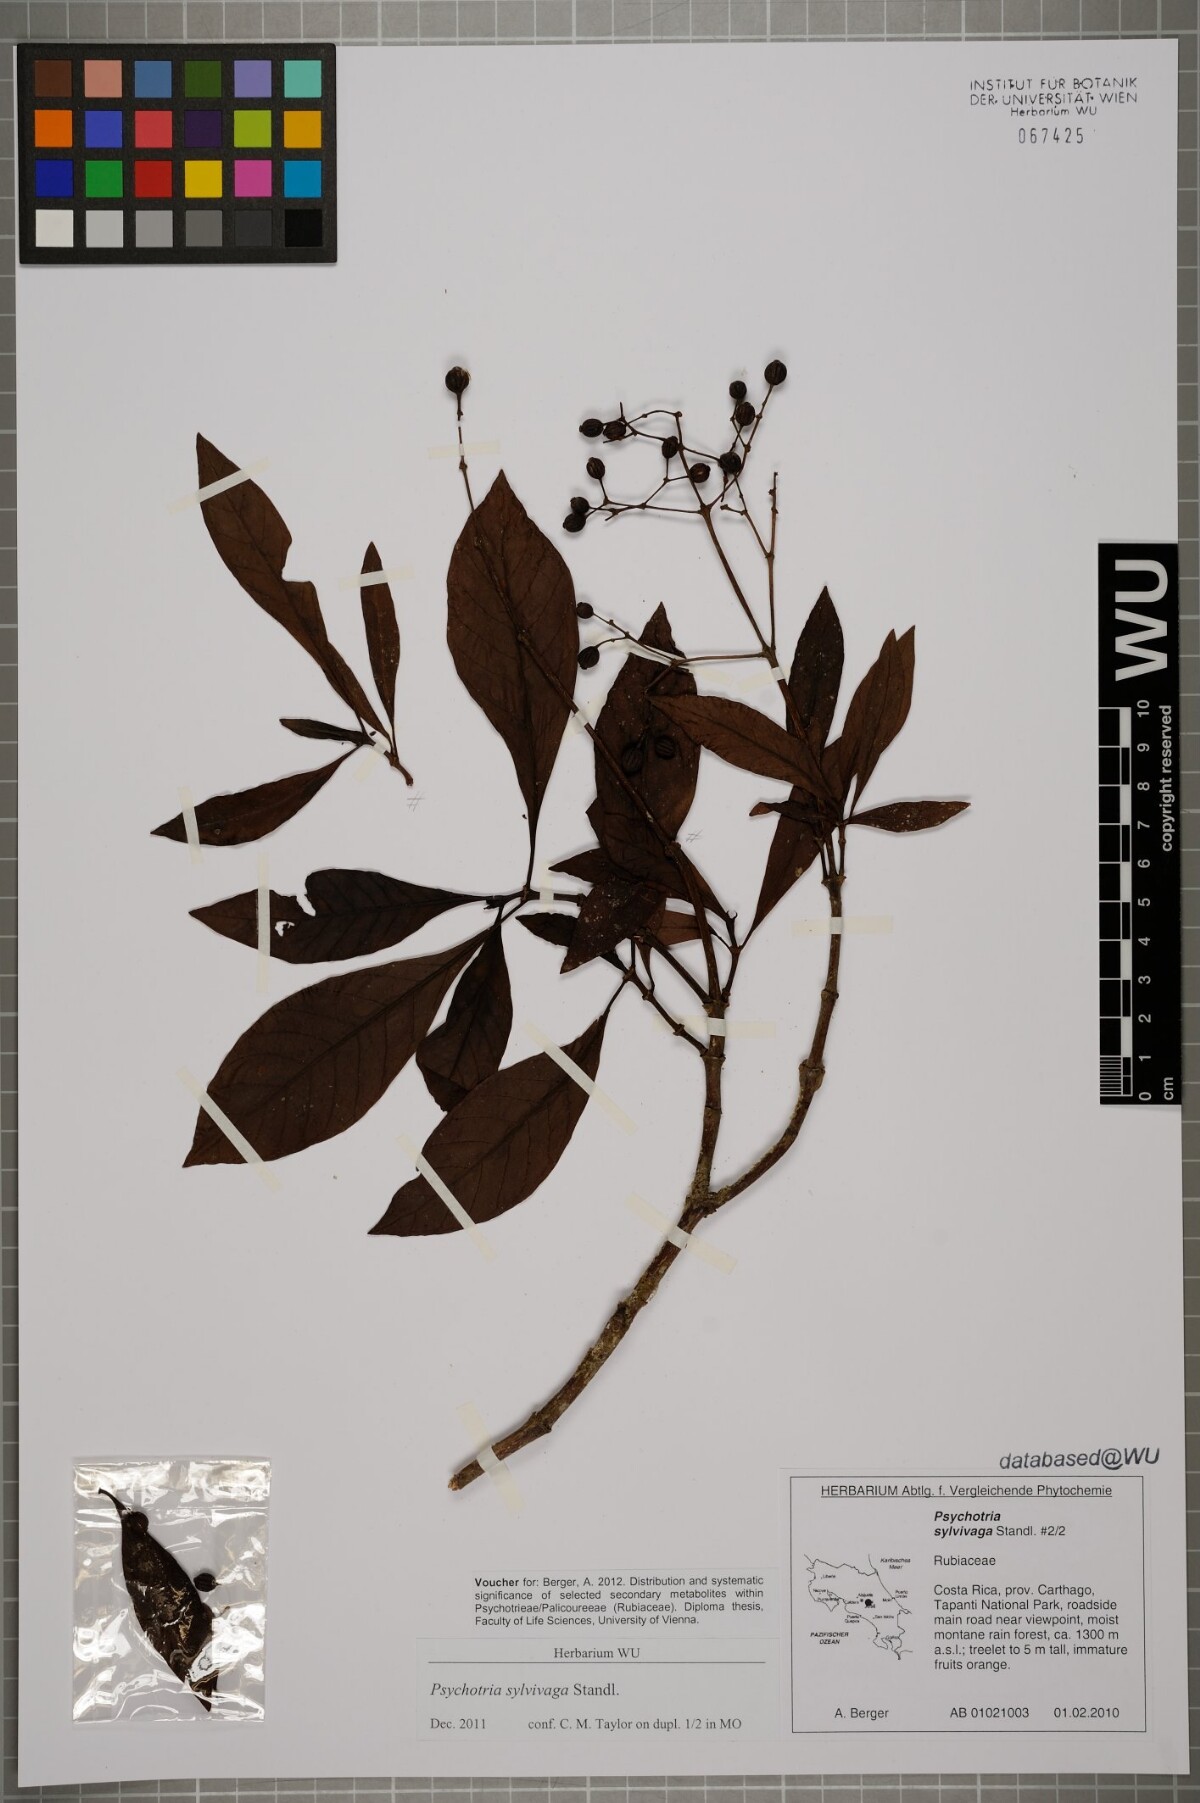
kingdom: Plantae
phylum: Tracheophyta
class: Magnoliopsida
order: Gentianales
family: Rubiaceae
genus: Psychotria
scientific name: Psychotria sylvivaga
